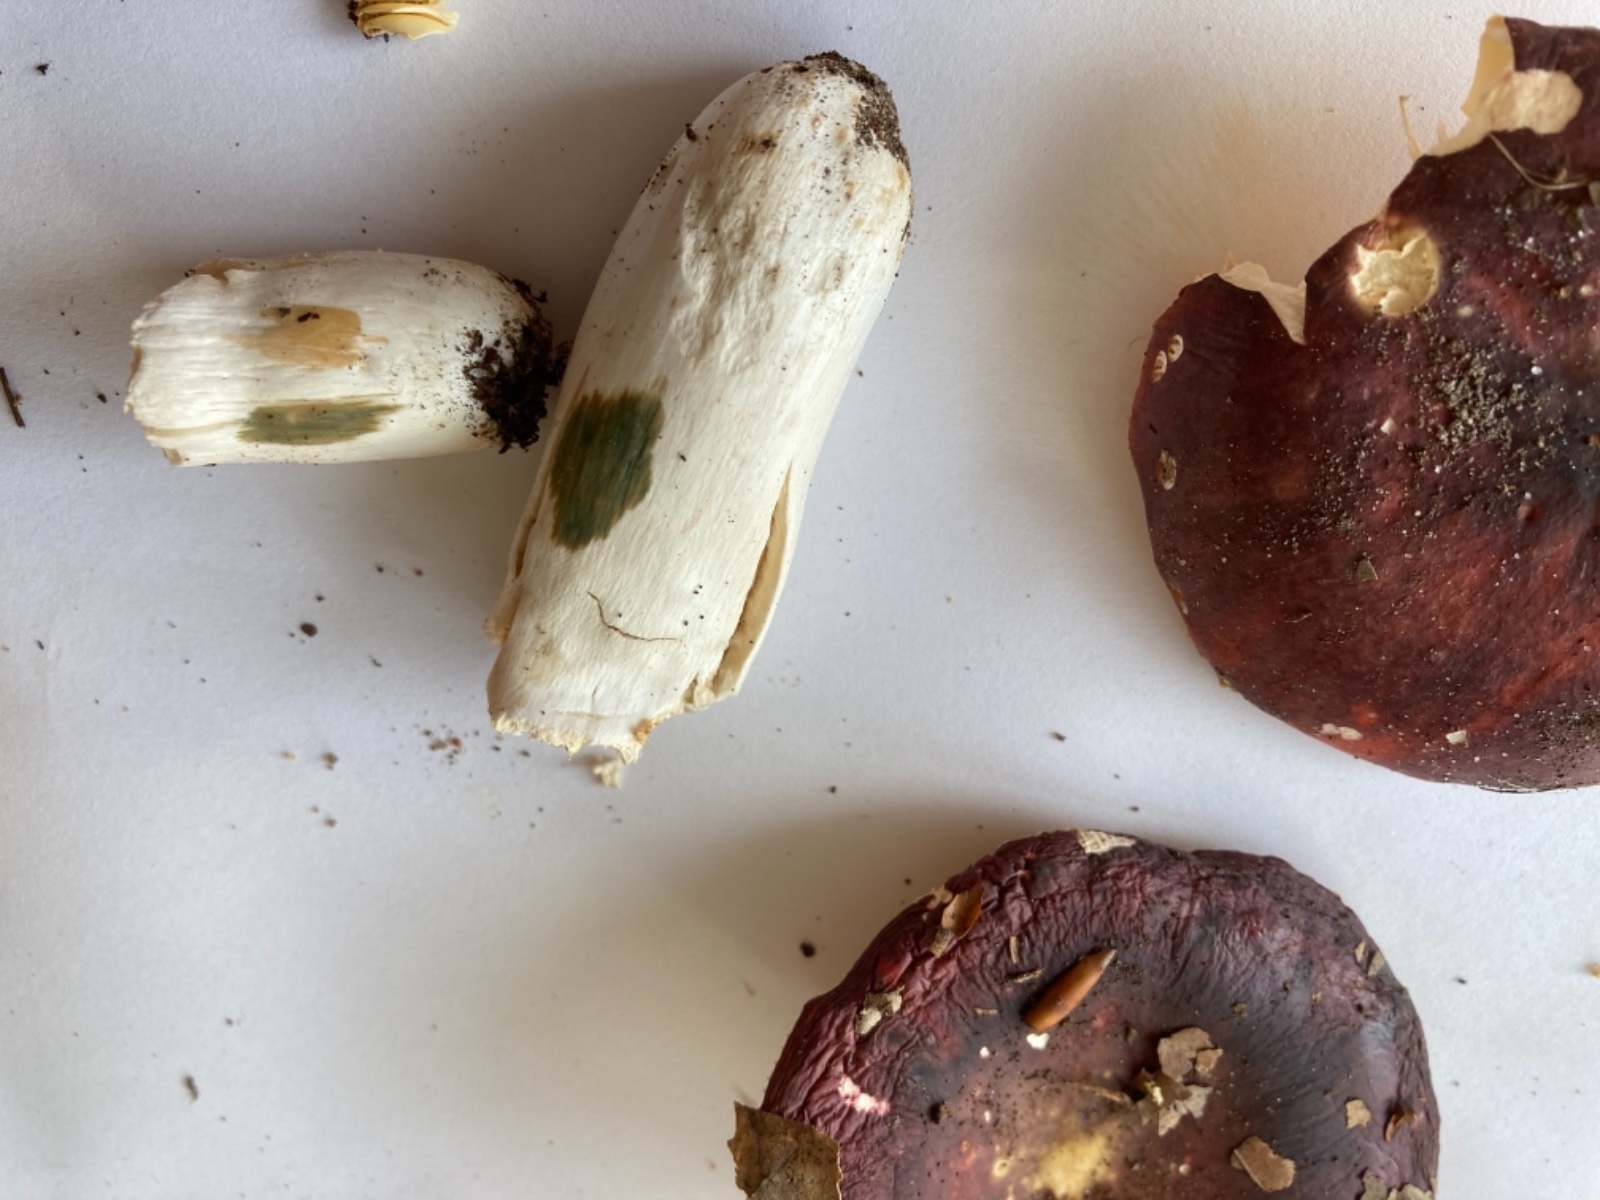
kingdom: Fungi
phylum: Basidiomycota
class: Agaricomycetes
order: Russulales
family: Russulaceae
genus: Russula
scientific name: Russula romellii
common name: romells skørhat
